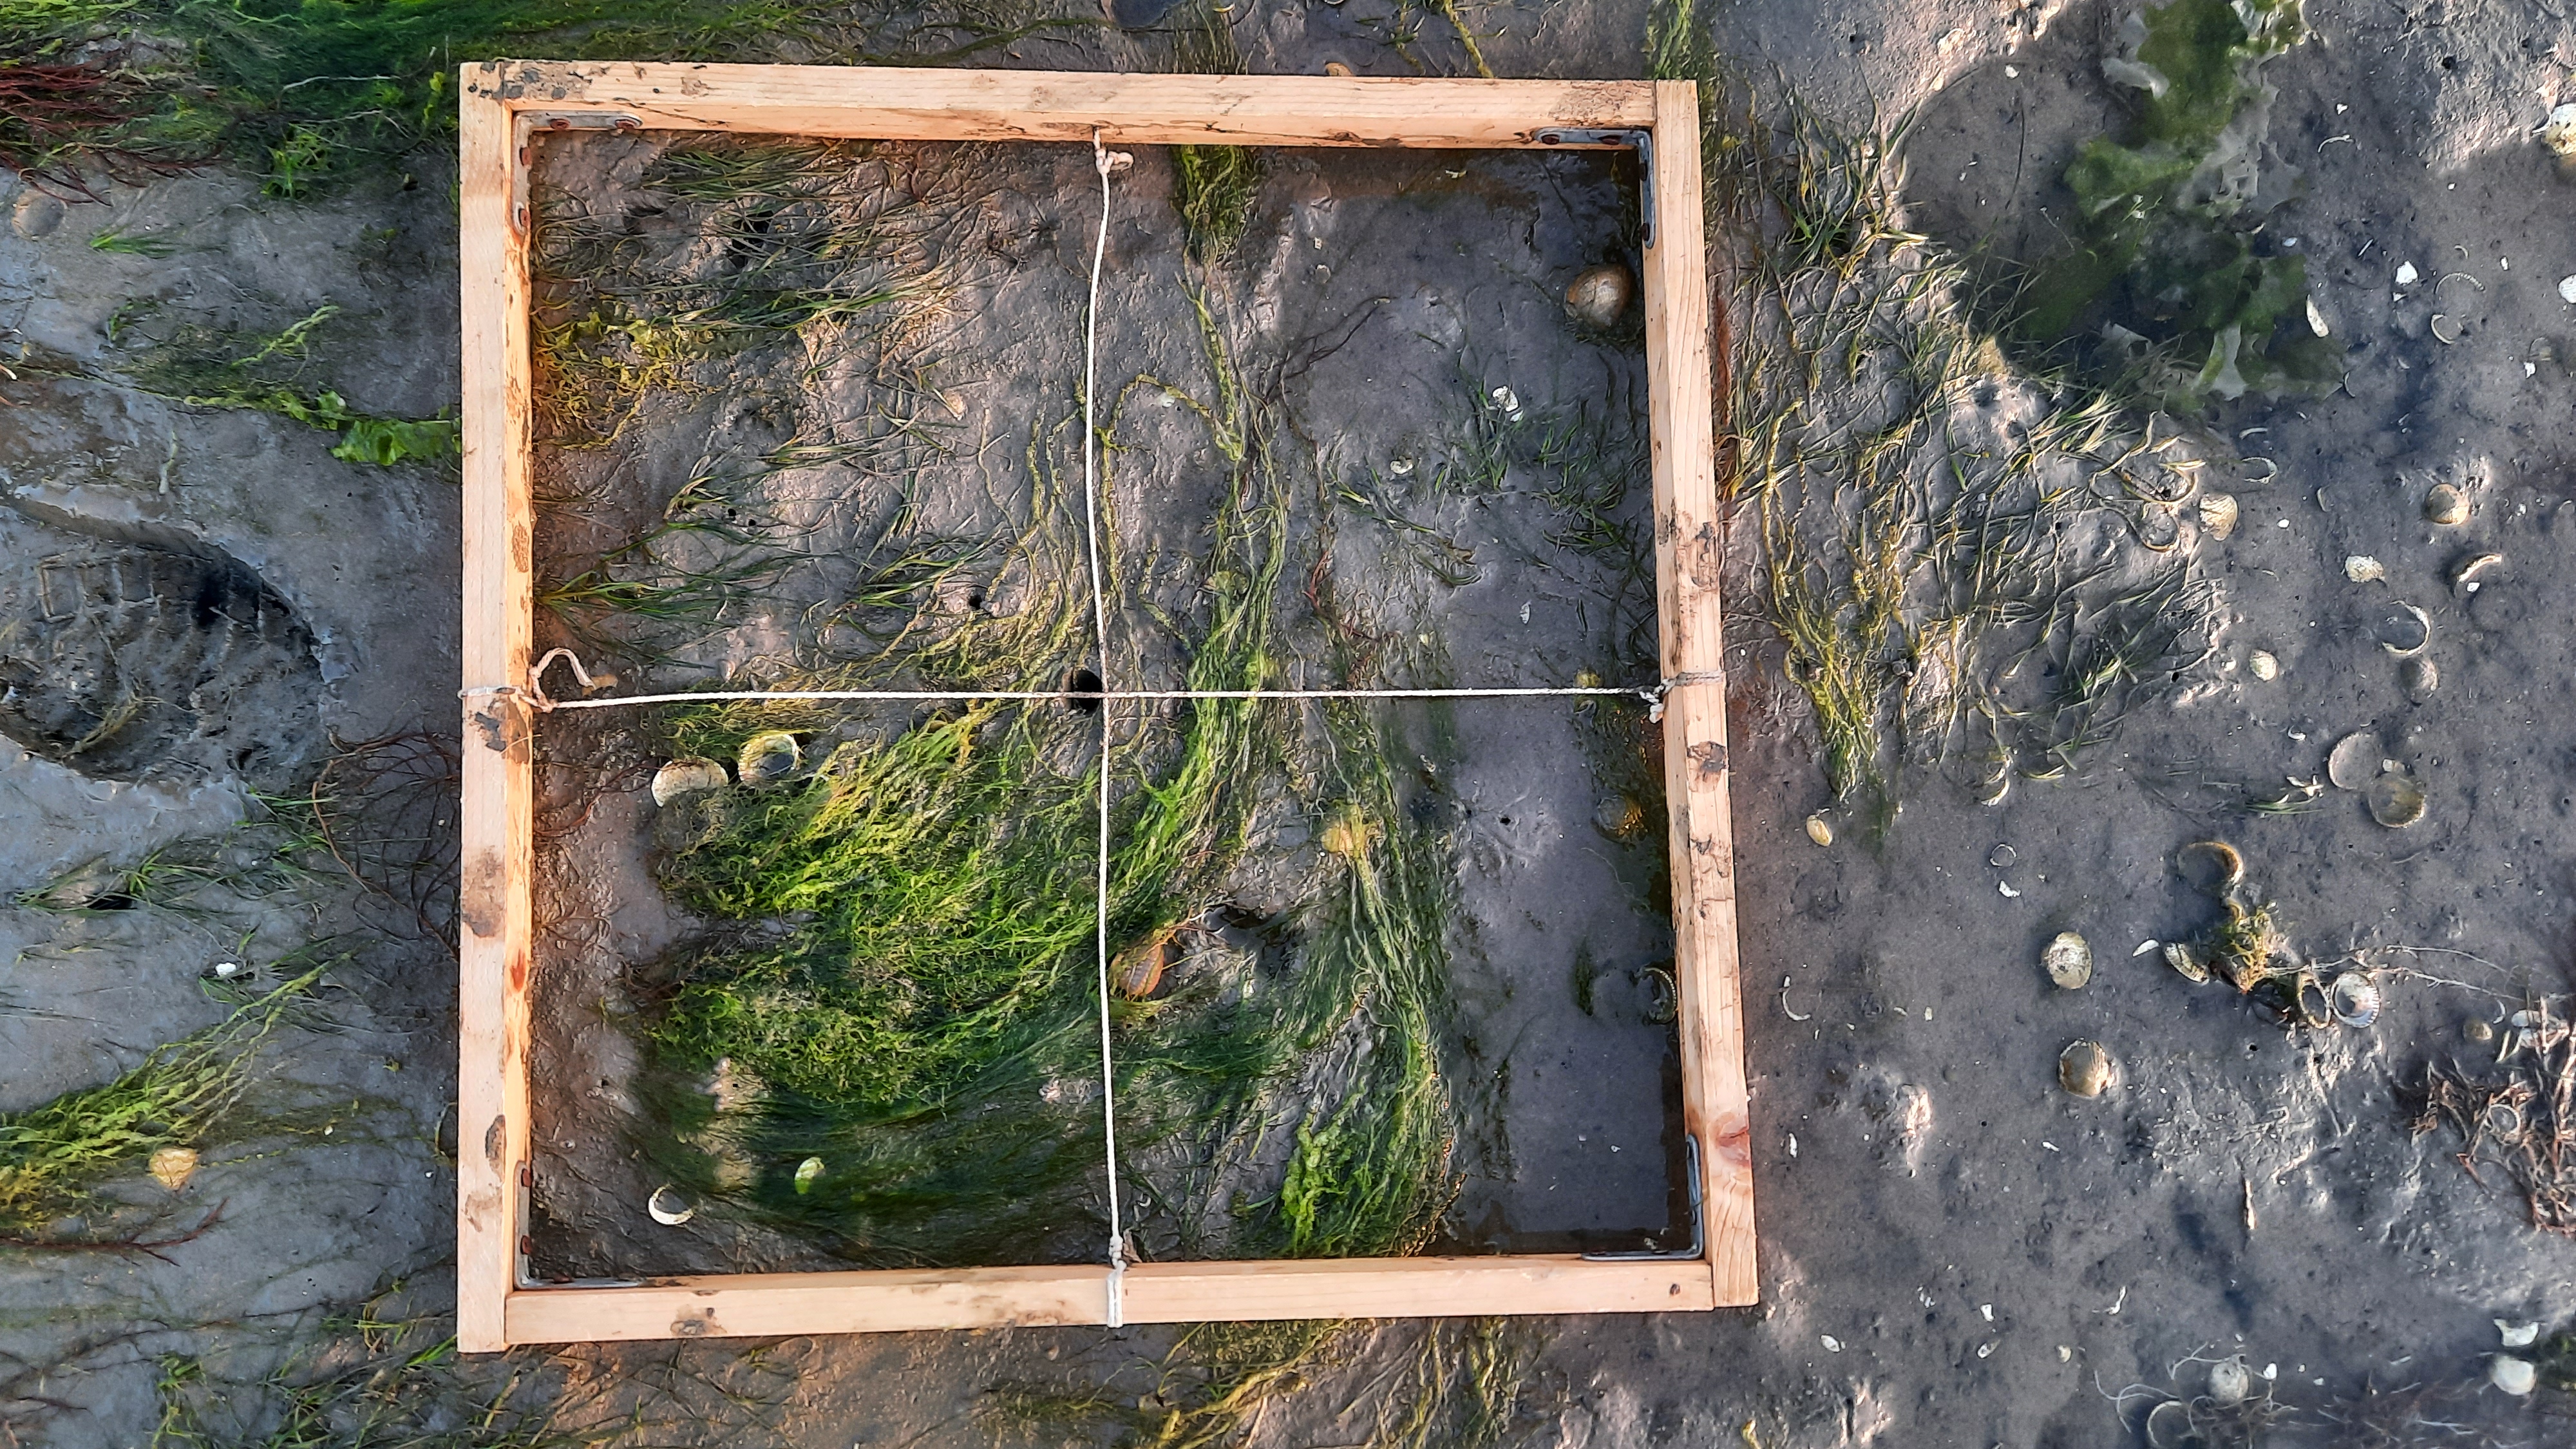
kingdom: Plantae
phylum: Tracheophyta
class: Liliopsida
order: Alismatales
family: Zosteraceae
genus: Zostera
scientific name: Zostera noltii
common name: Dwarf eelgrass
